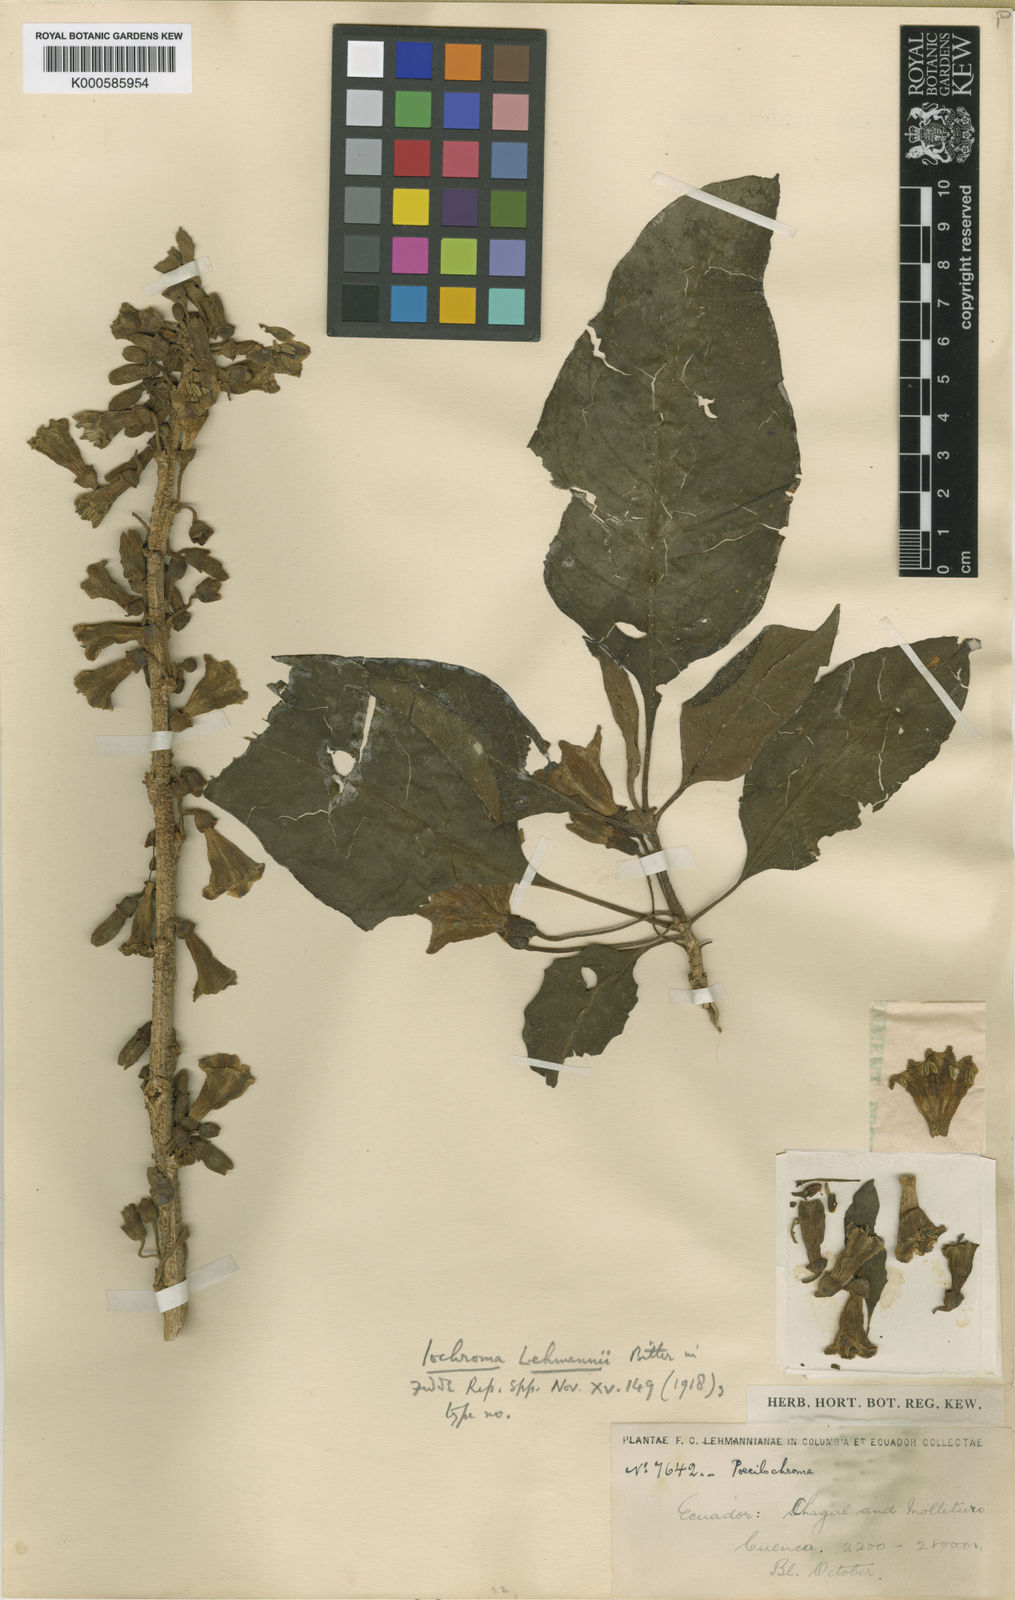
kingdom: Plantae
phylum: Tracheophyta
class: Magnoliopsida
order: Solanales
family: Solanaceae
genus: Iochroma
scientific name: Iochroma lehmannii
